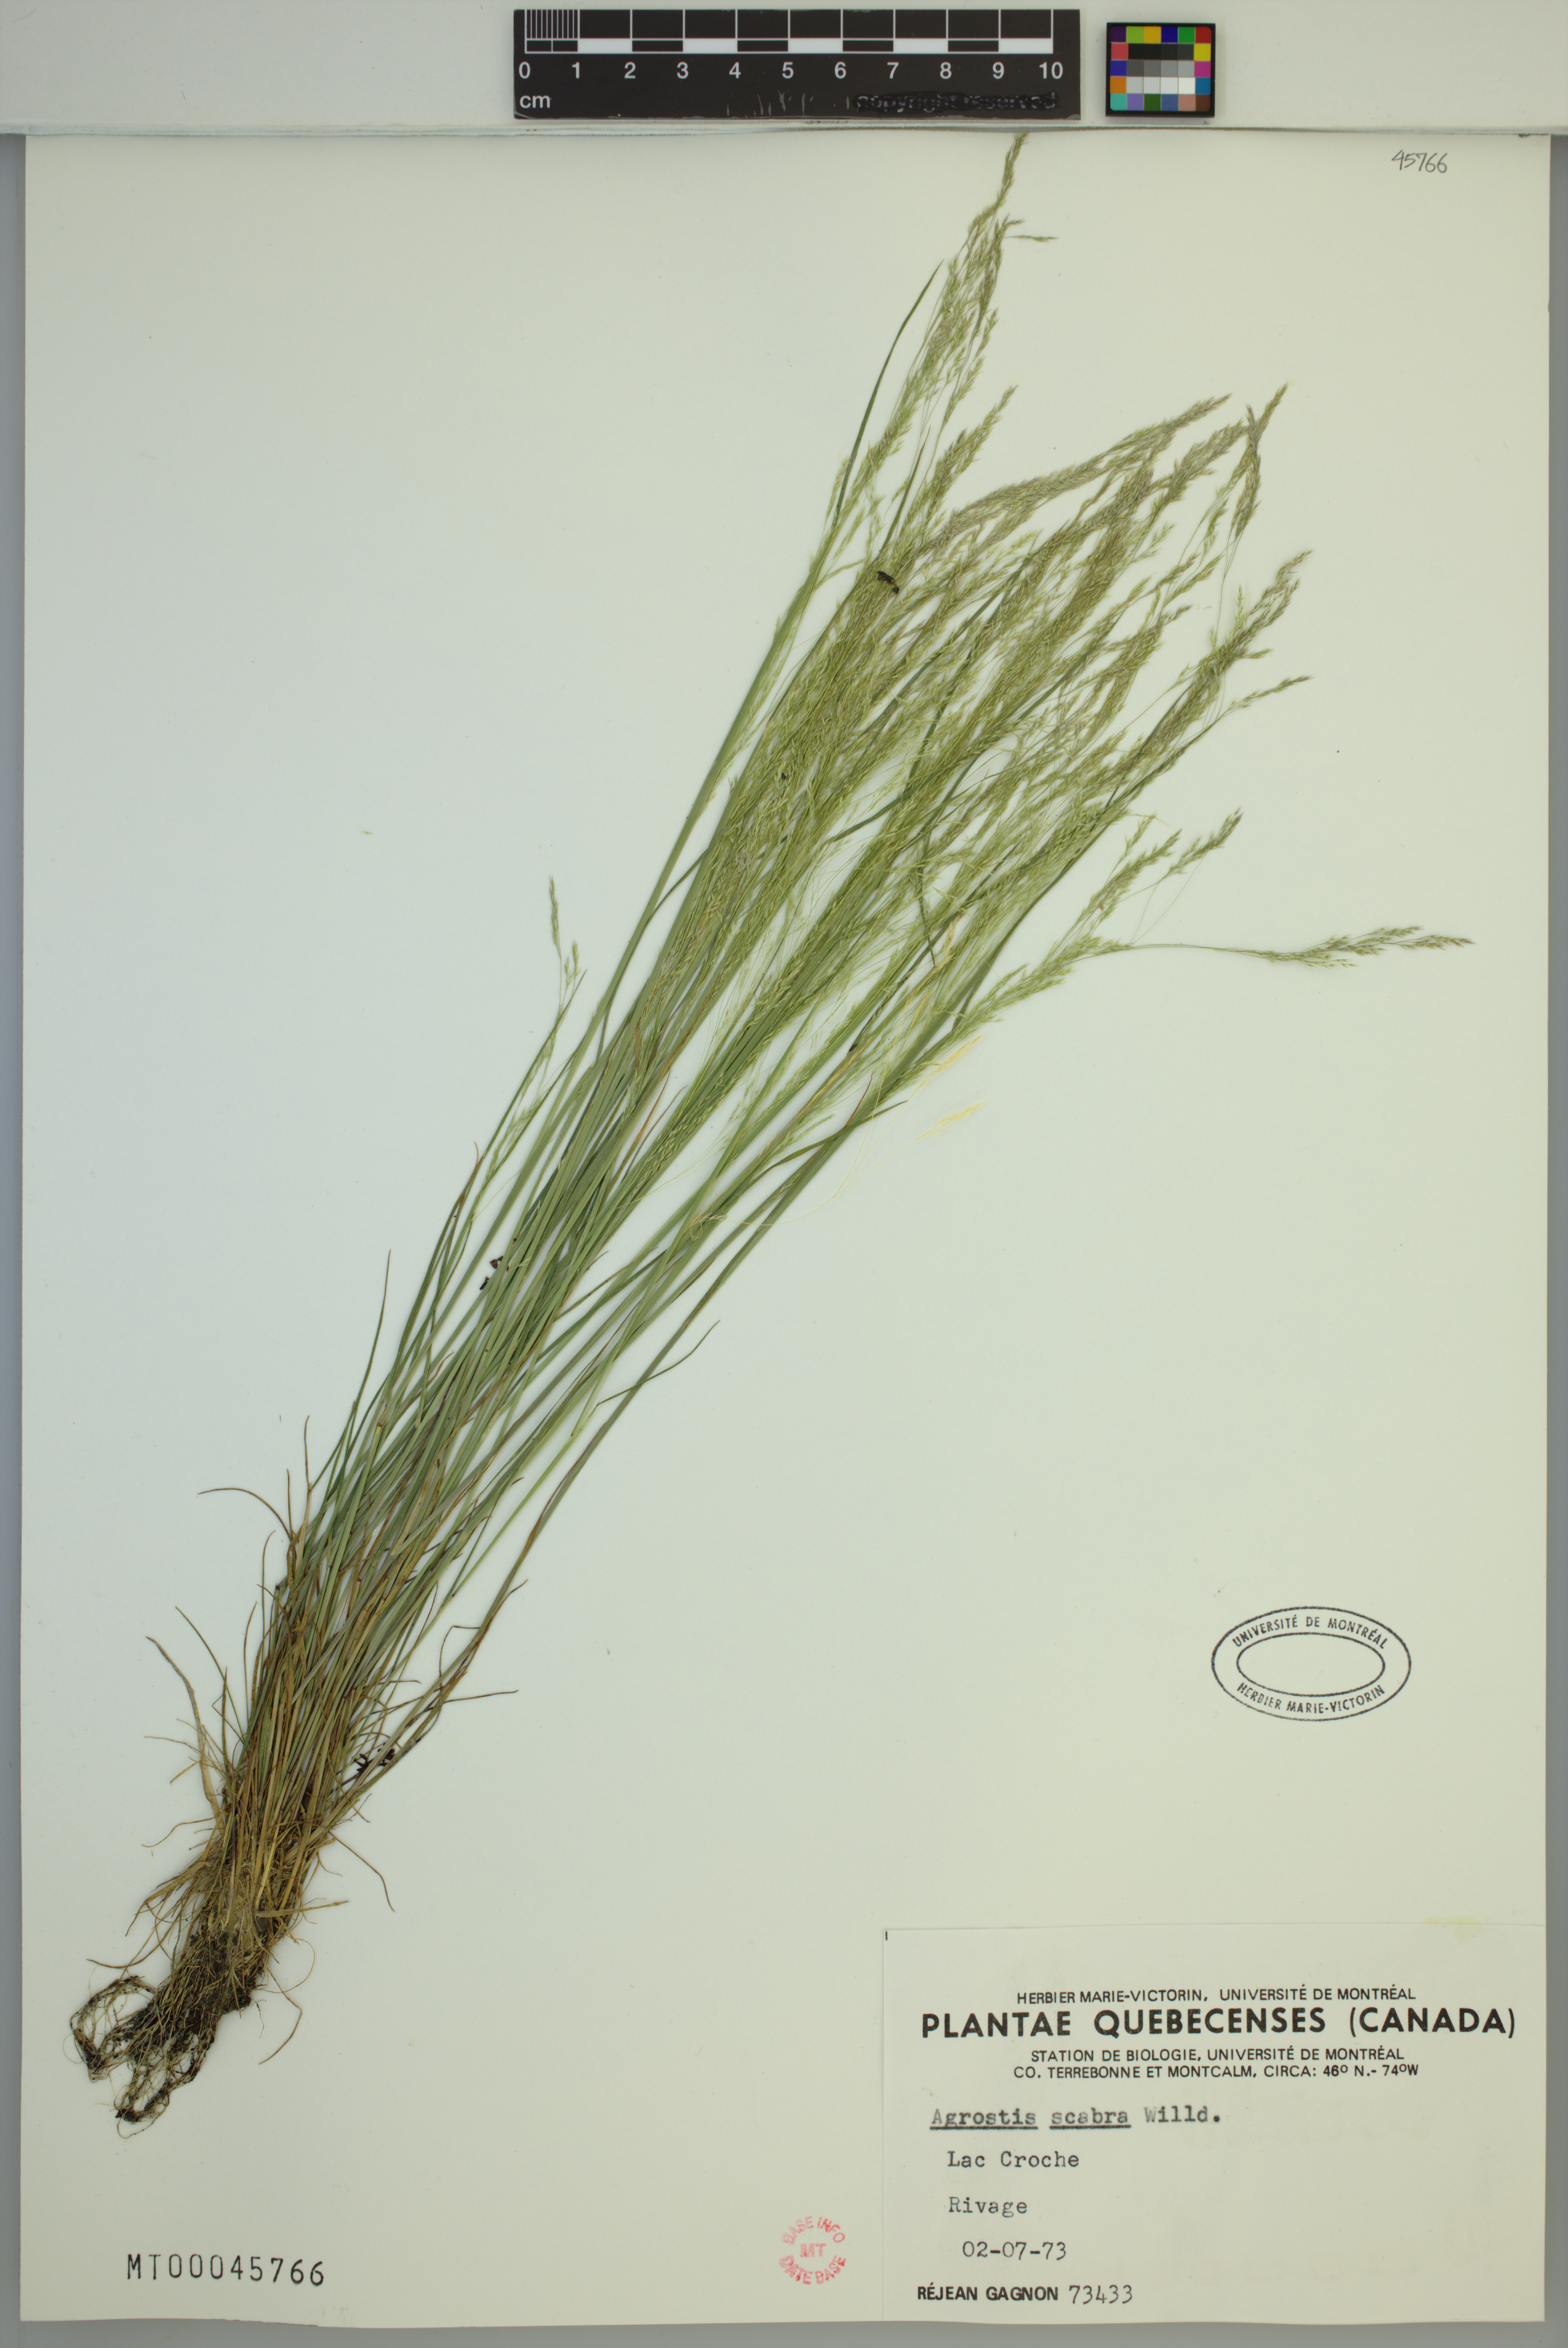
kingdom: Plantae
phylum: Tracheophyta
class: Liliopsida
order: Poales
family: Poaceae
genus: Agrostis
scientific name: Agrostis scabra
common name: Rough bent
